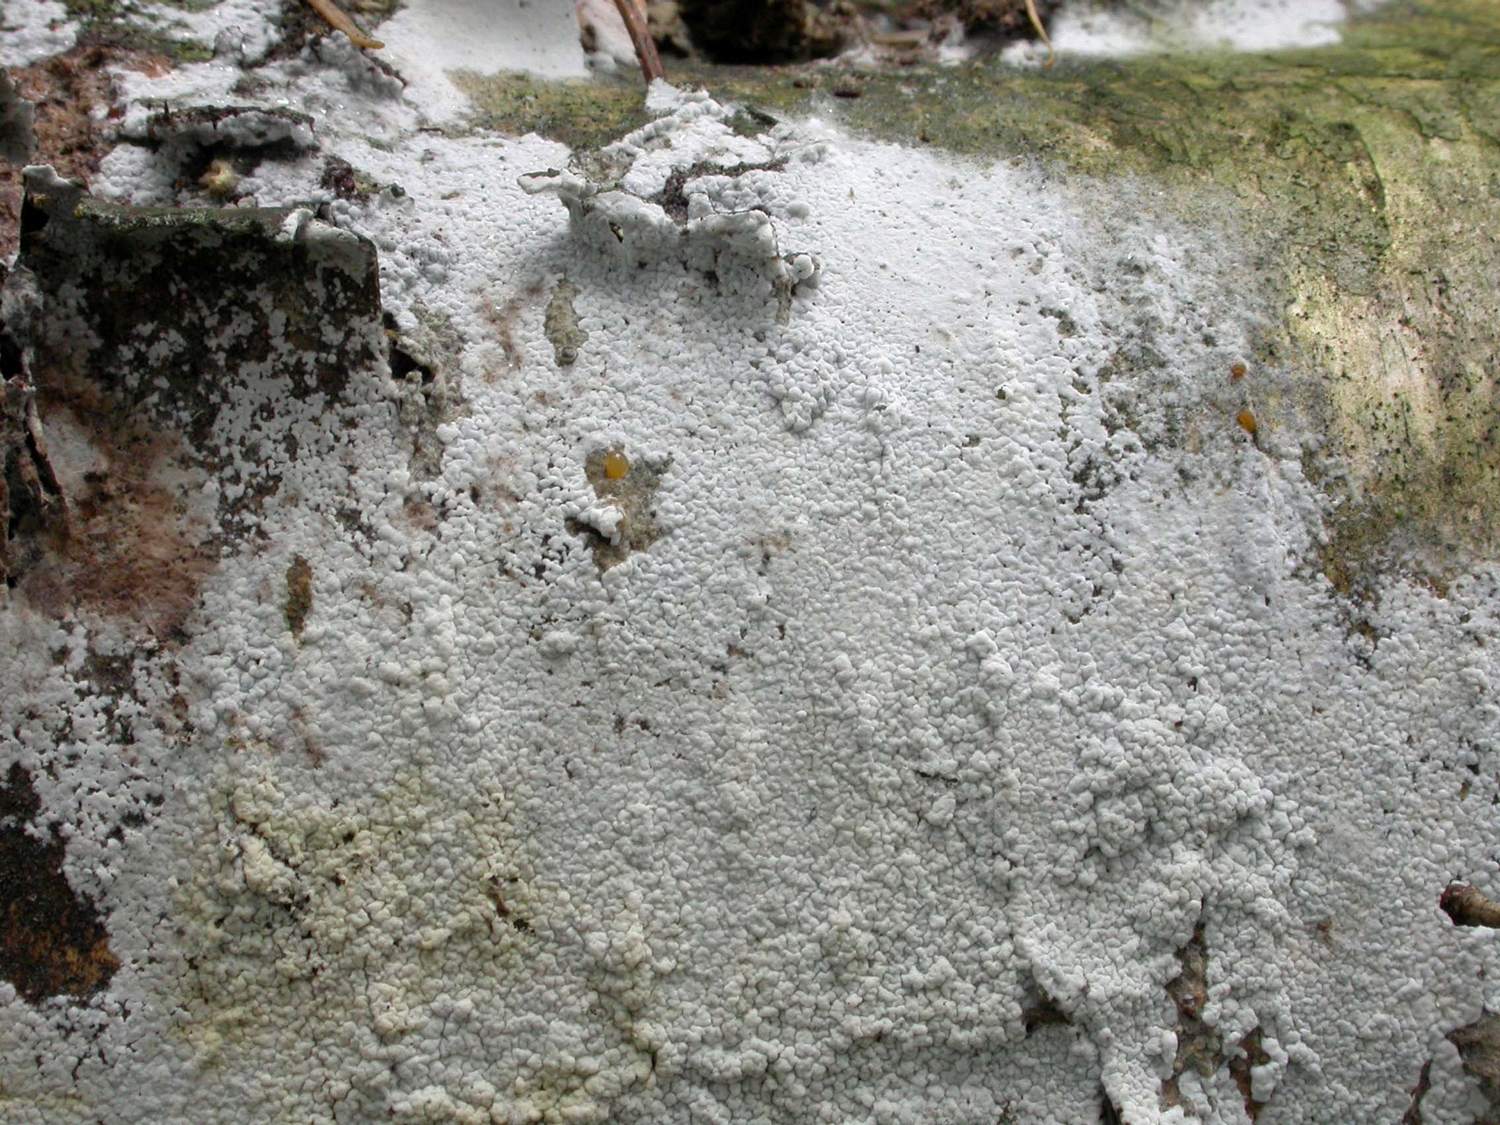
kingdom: Fungi
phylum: Basidiomycota
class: Agaricomycetes
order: Atheliales
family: Atheliaceae
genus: Athelia
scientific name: Athelia epiphylla
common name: almindelig barkhinde
